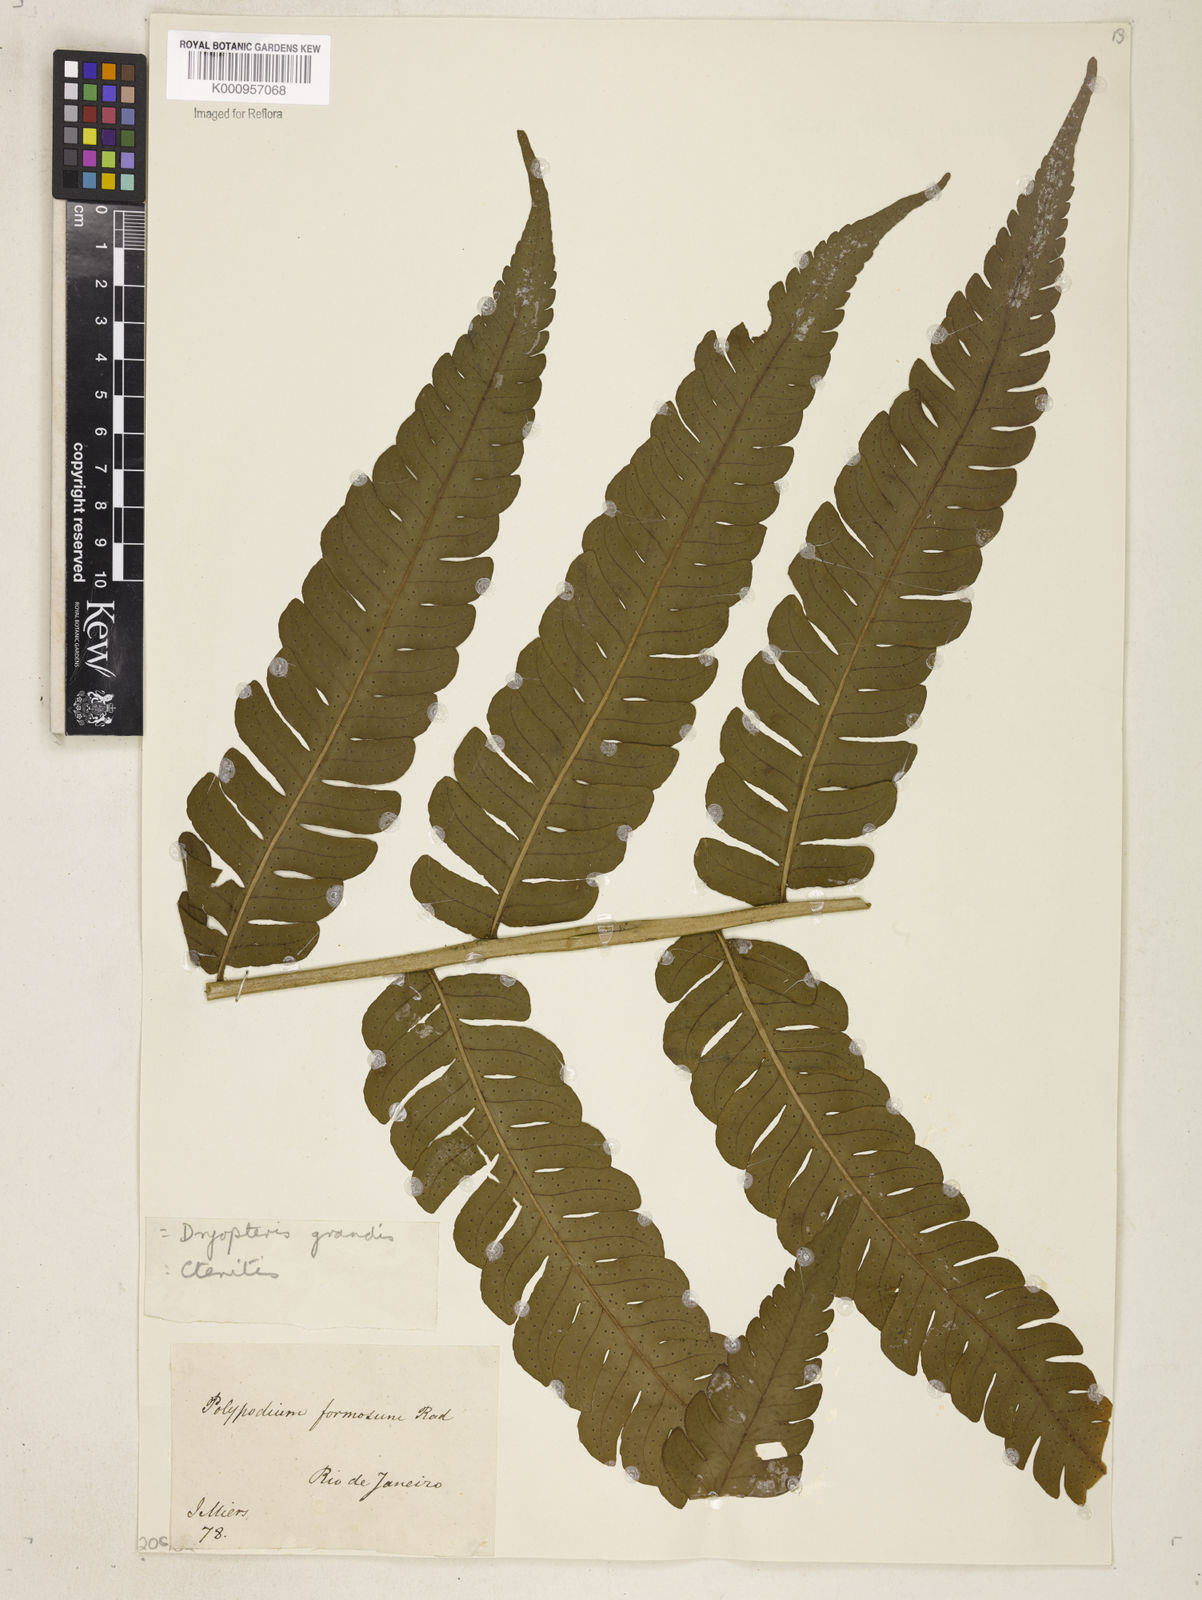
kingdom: Plantae
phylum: Tracheophyta
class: Polypodiopsida
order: Polypodiales
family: Dryopteridaceae
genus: Megalastrum
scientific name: Megalastrum grande
